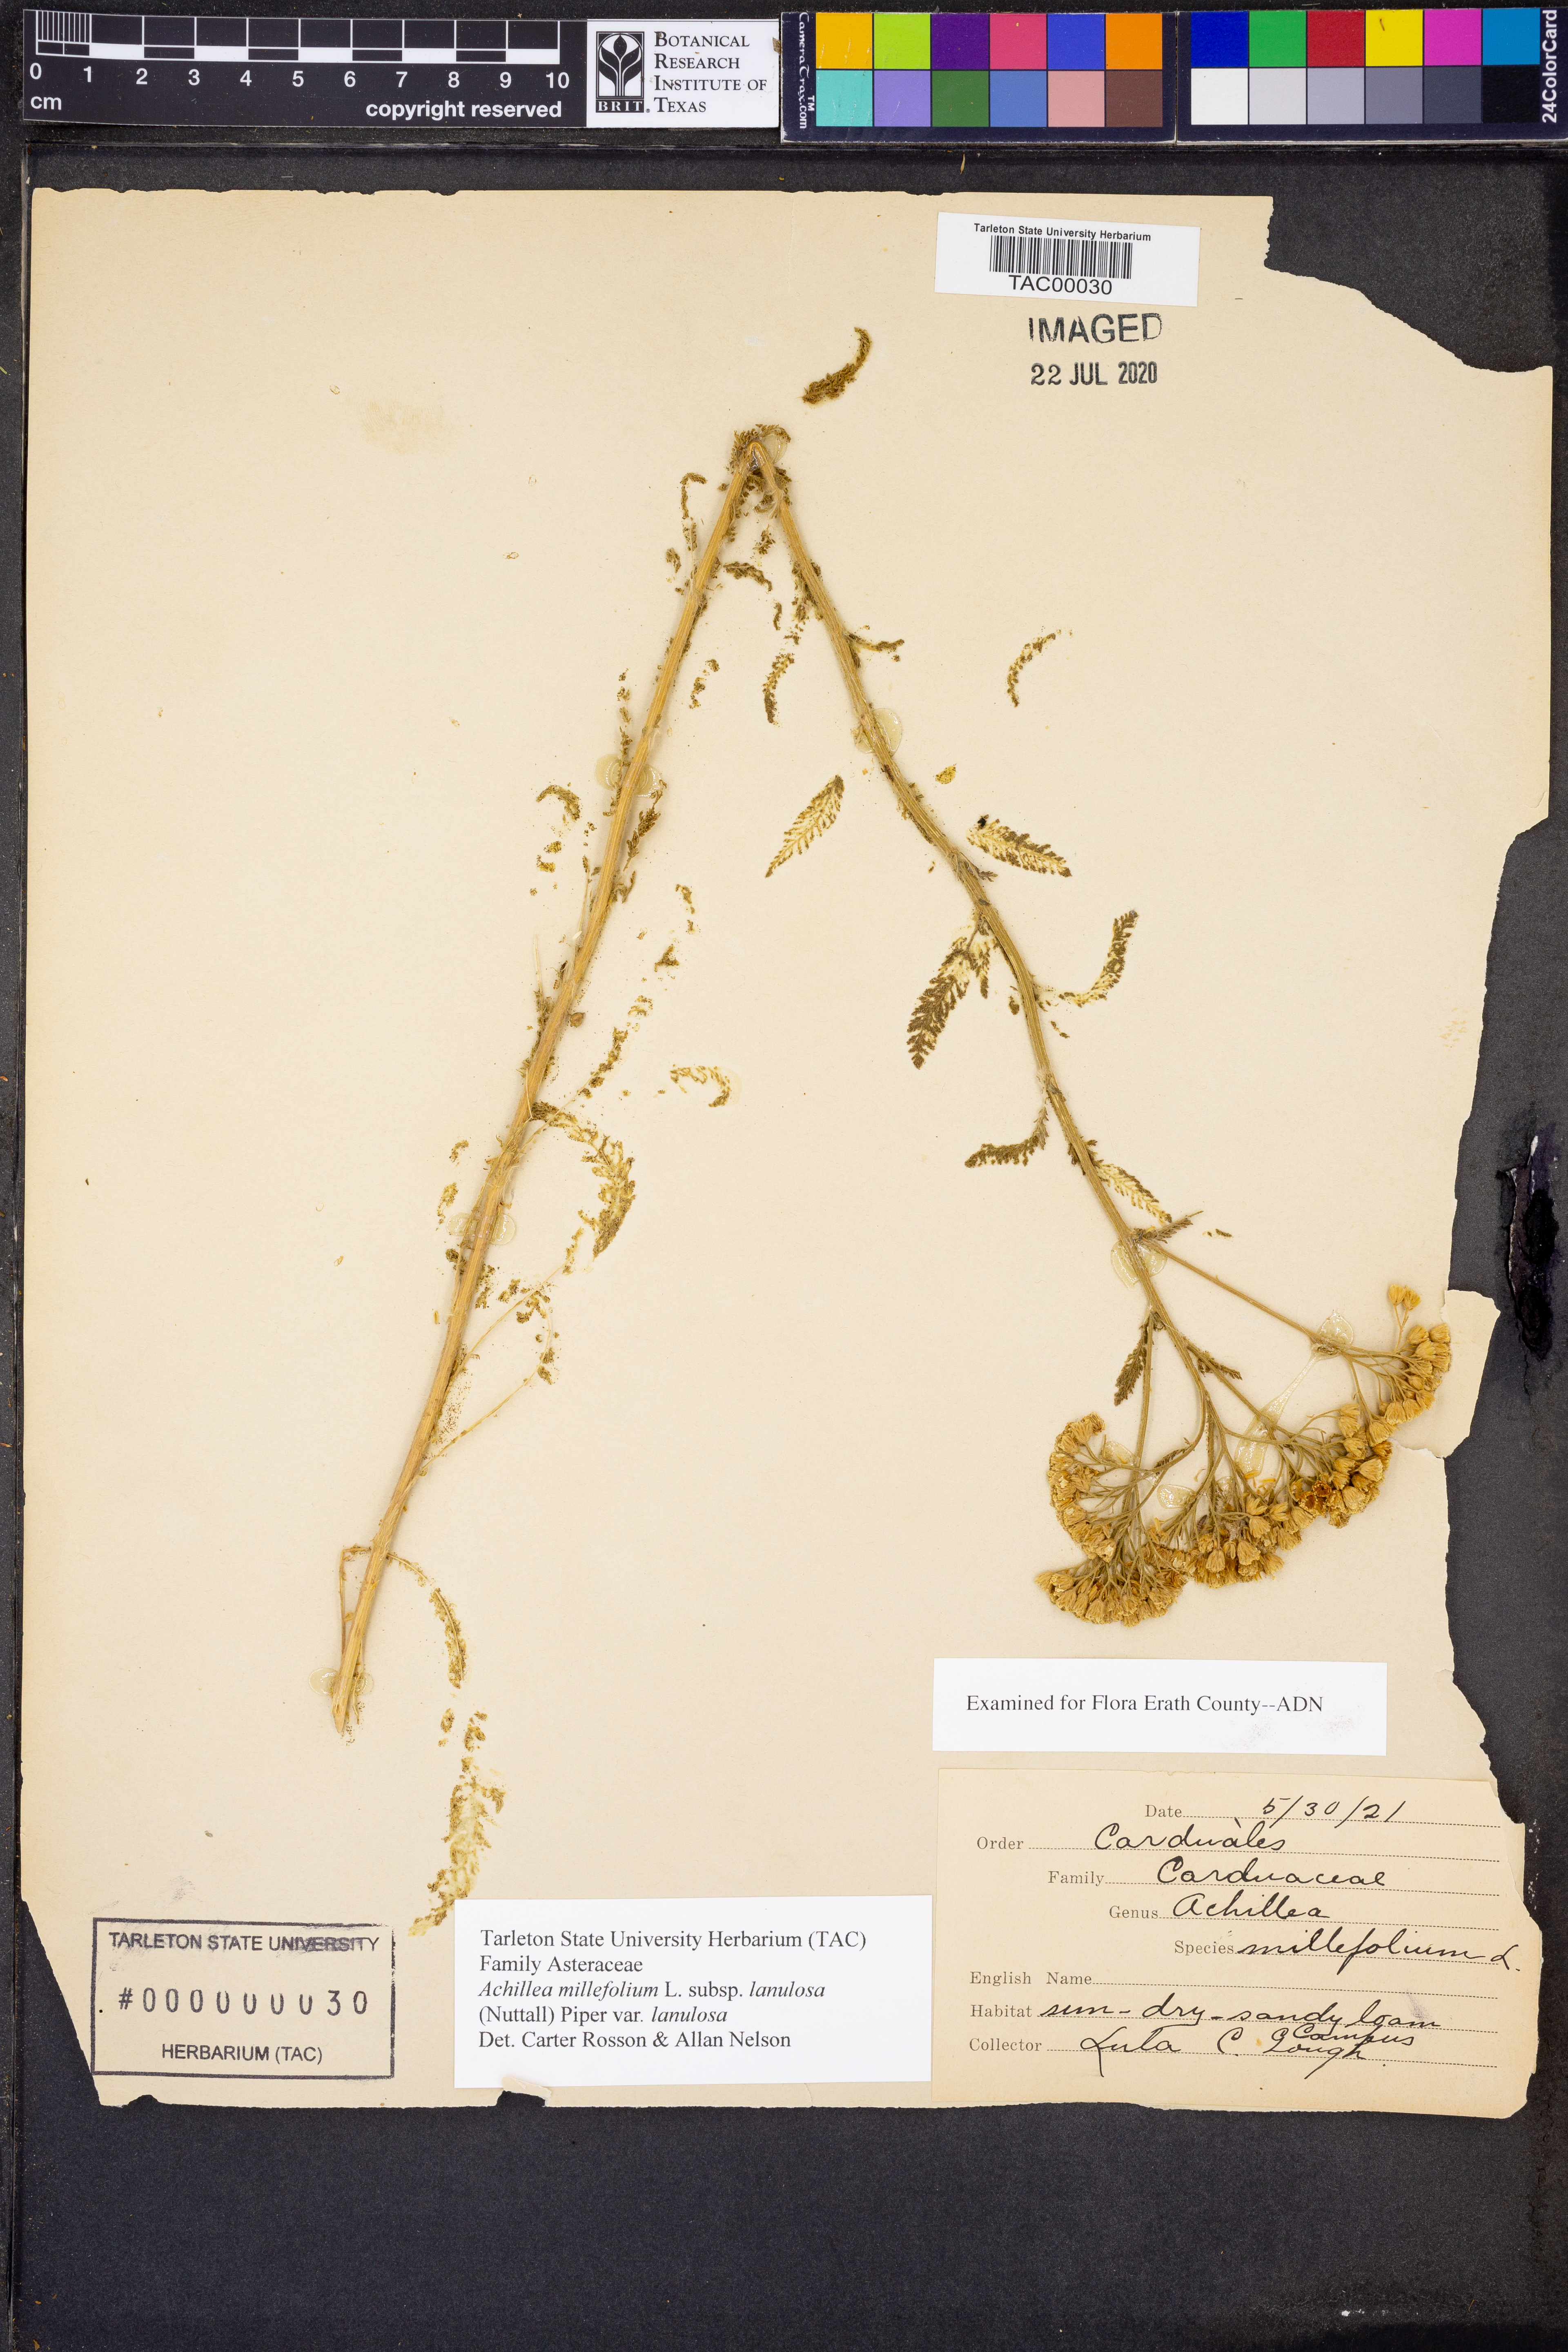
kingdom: Plantae
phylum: Tracheophyta
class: Magnoliopsida
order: Asterales
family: Asteraceae
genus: Achillea
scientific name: Achillea millefolium
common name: Yarrow
